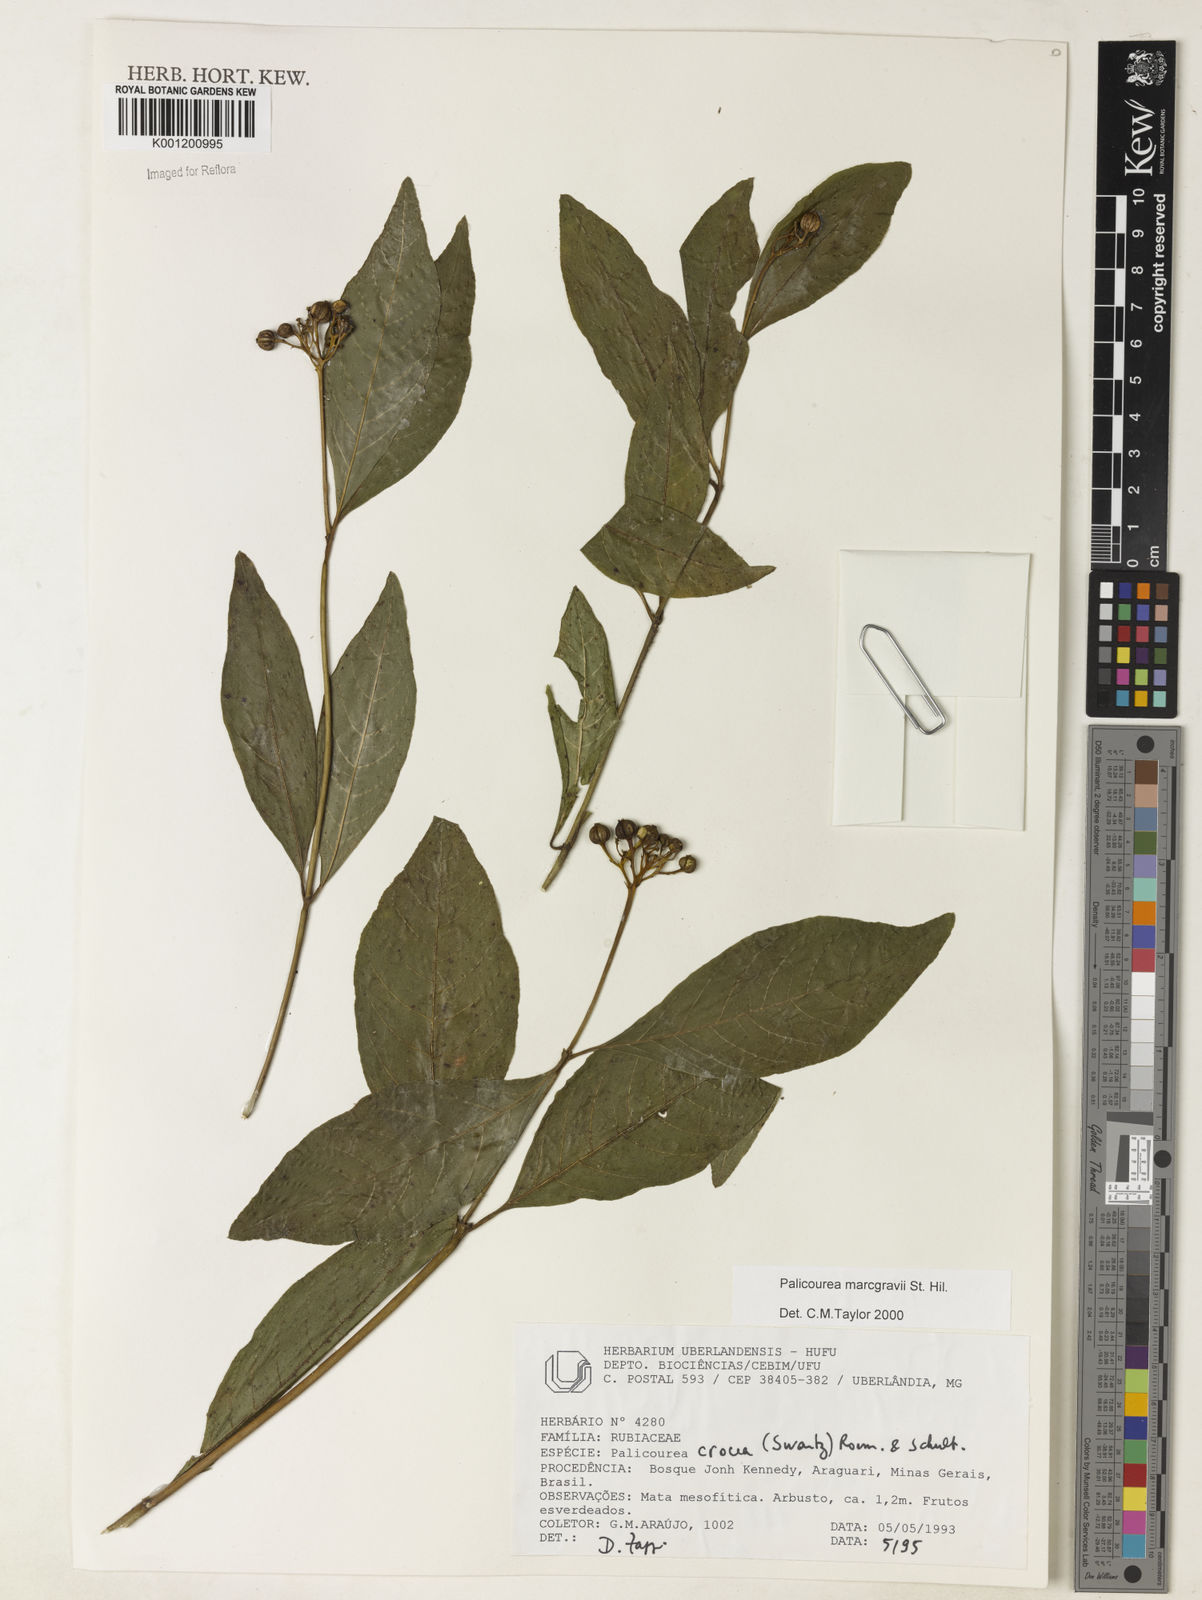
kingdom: Plantae
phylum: Tracheophyta
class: Magnoliopsida
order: Gentianales
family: Rubiaceae
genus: Palicourea
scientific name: Palicourea marcgravii
